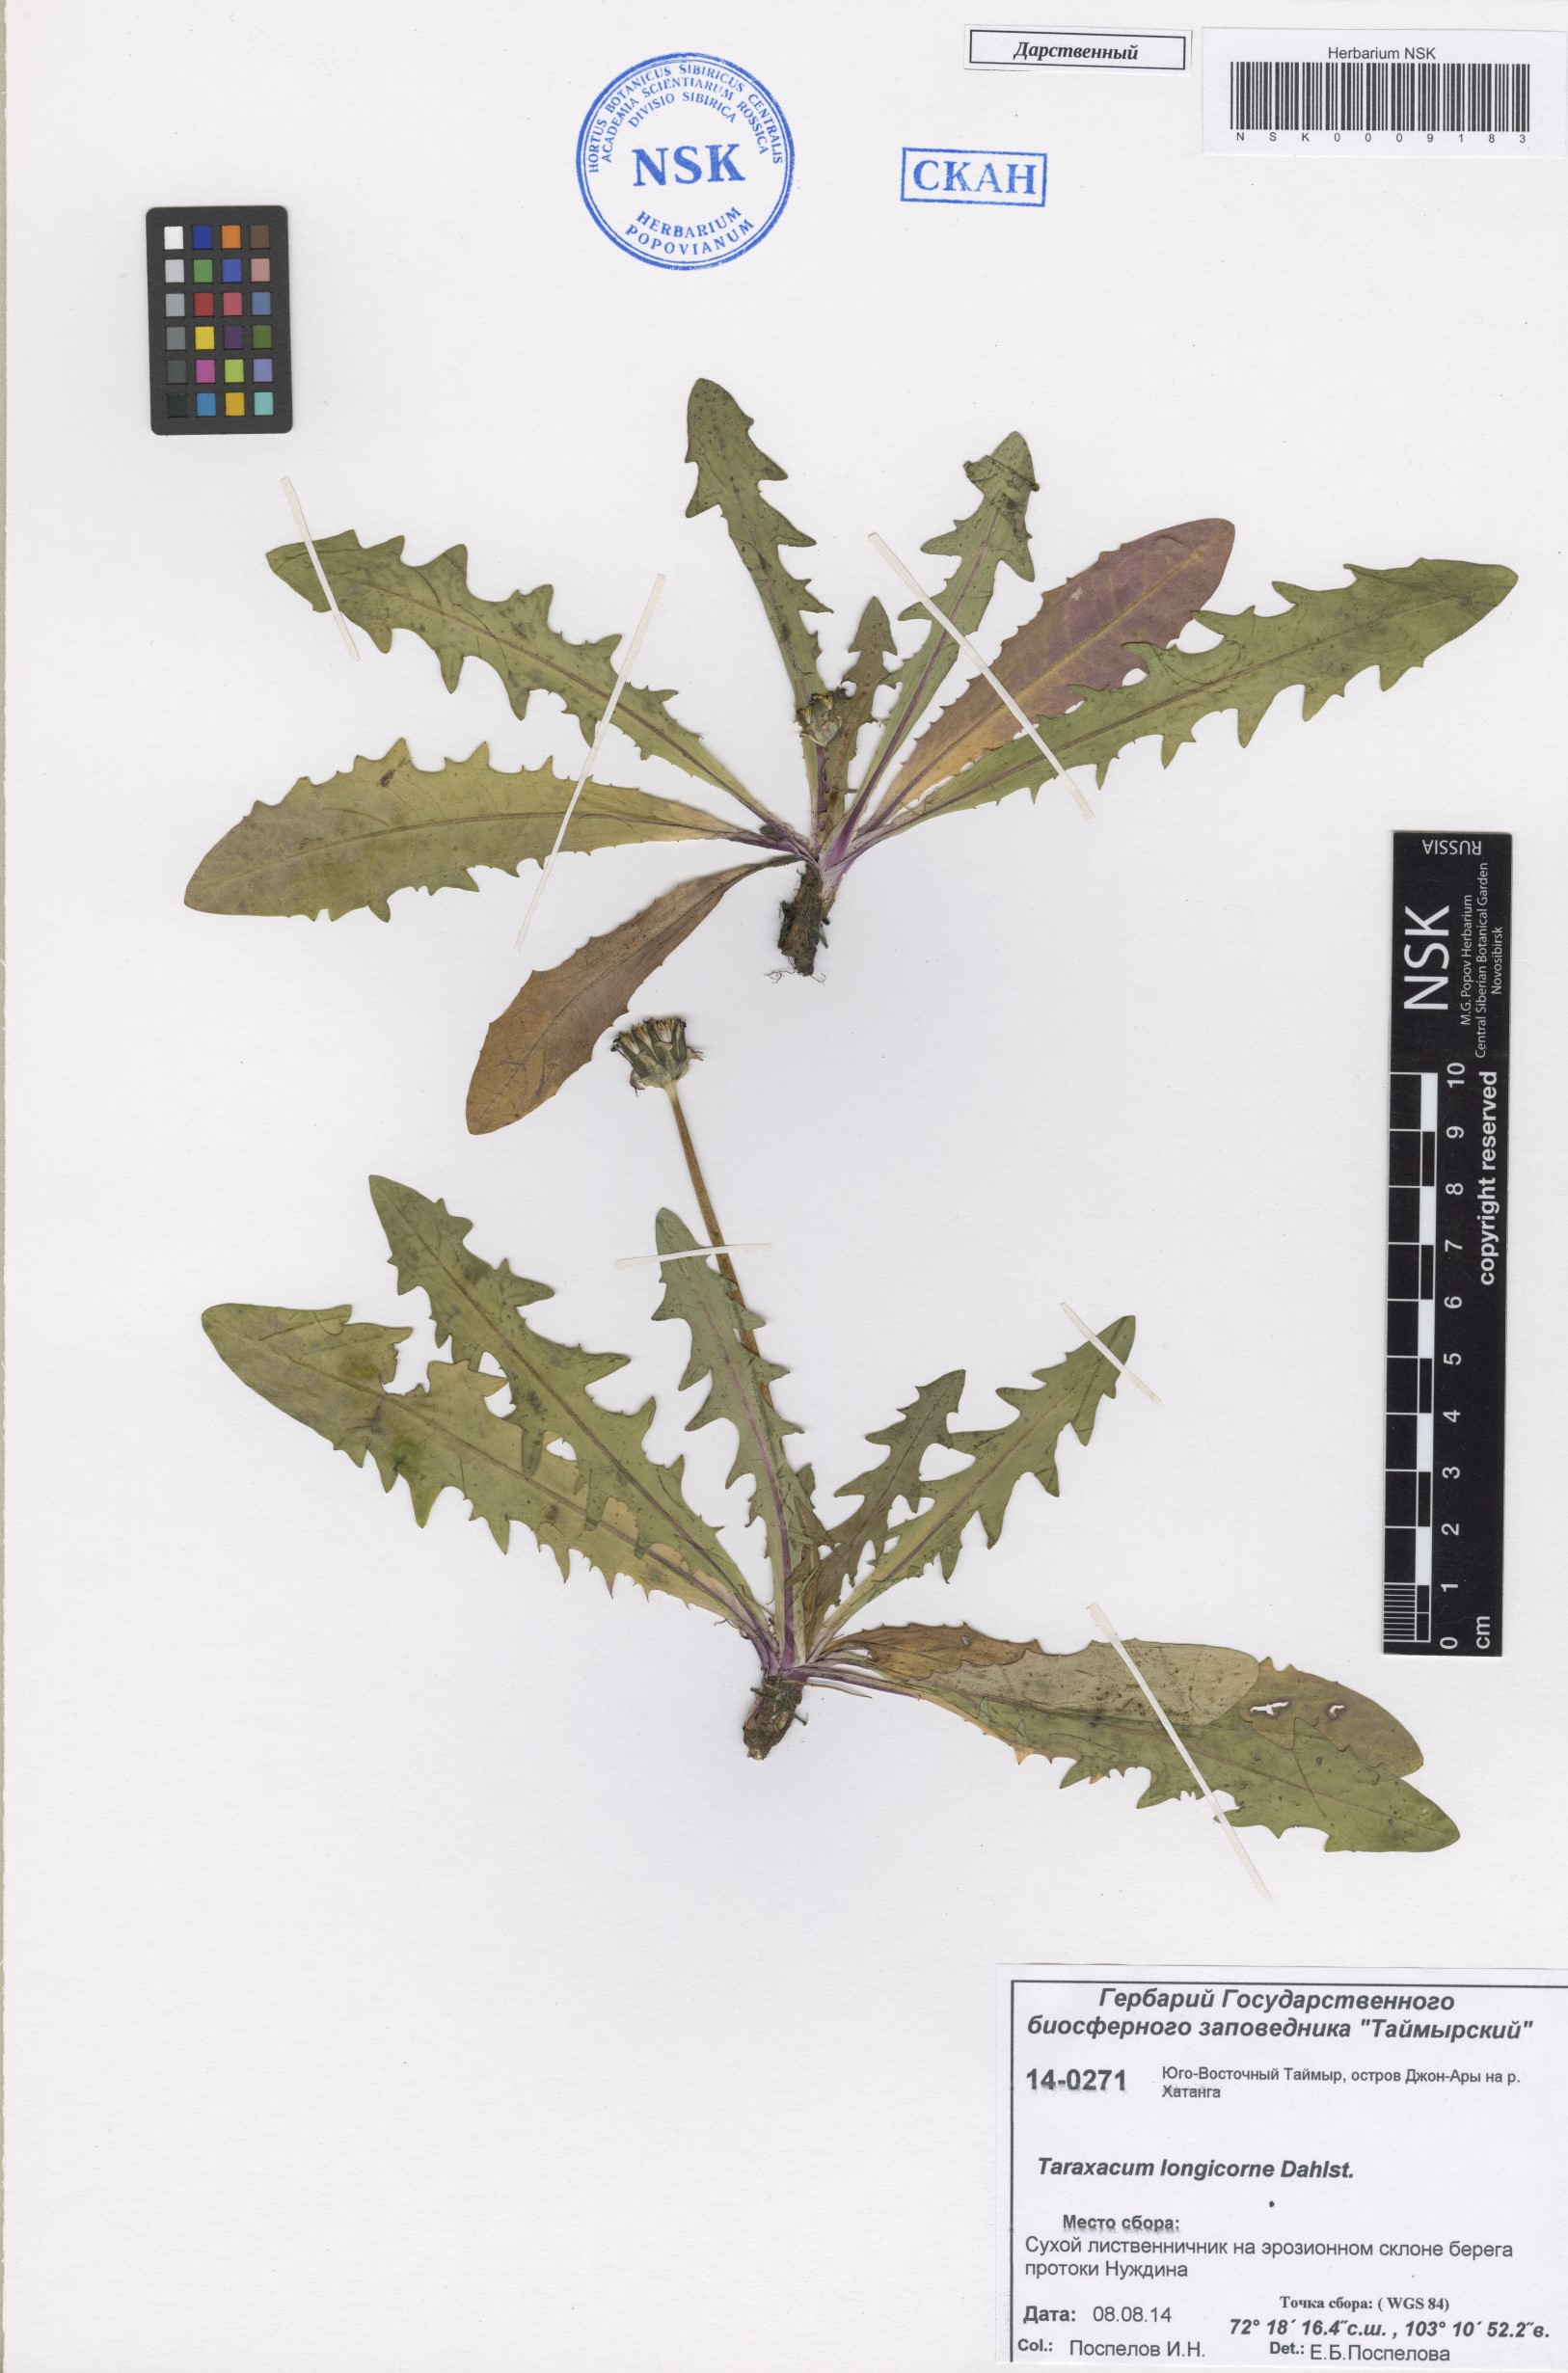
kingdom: Plantae
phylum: Tracheophyta
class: Magnoliopsida
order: Asterales
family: Asteraceae
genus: Taraxacum
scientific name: Taraxacum longicorne
